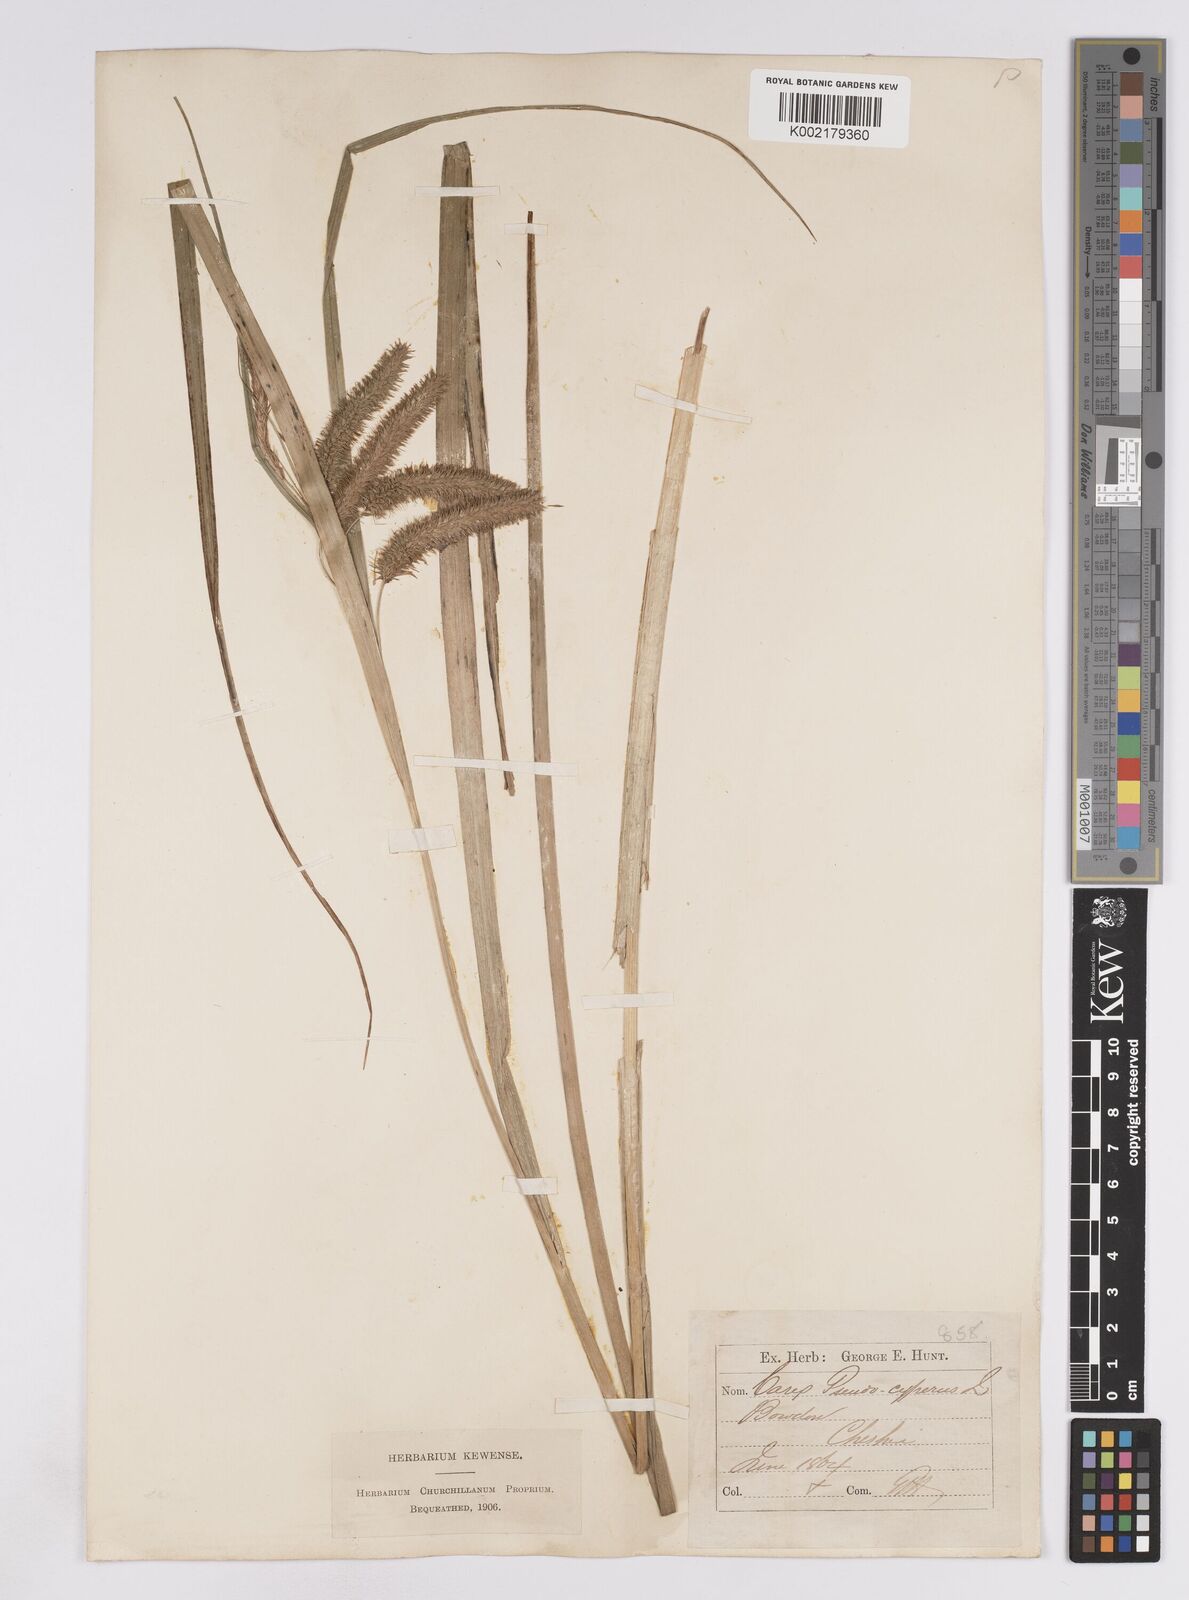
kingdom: Plantae
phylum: Tracheophyta
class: Liliopsida
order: Poales
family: Cyperaceae
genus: Carex
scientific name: Carex pseudocyperus
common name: Cyperus sedge
